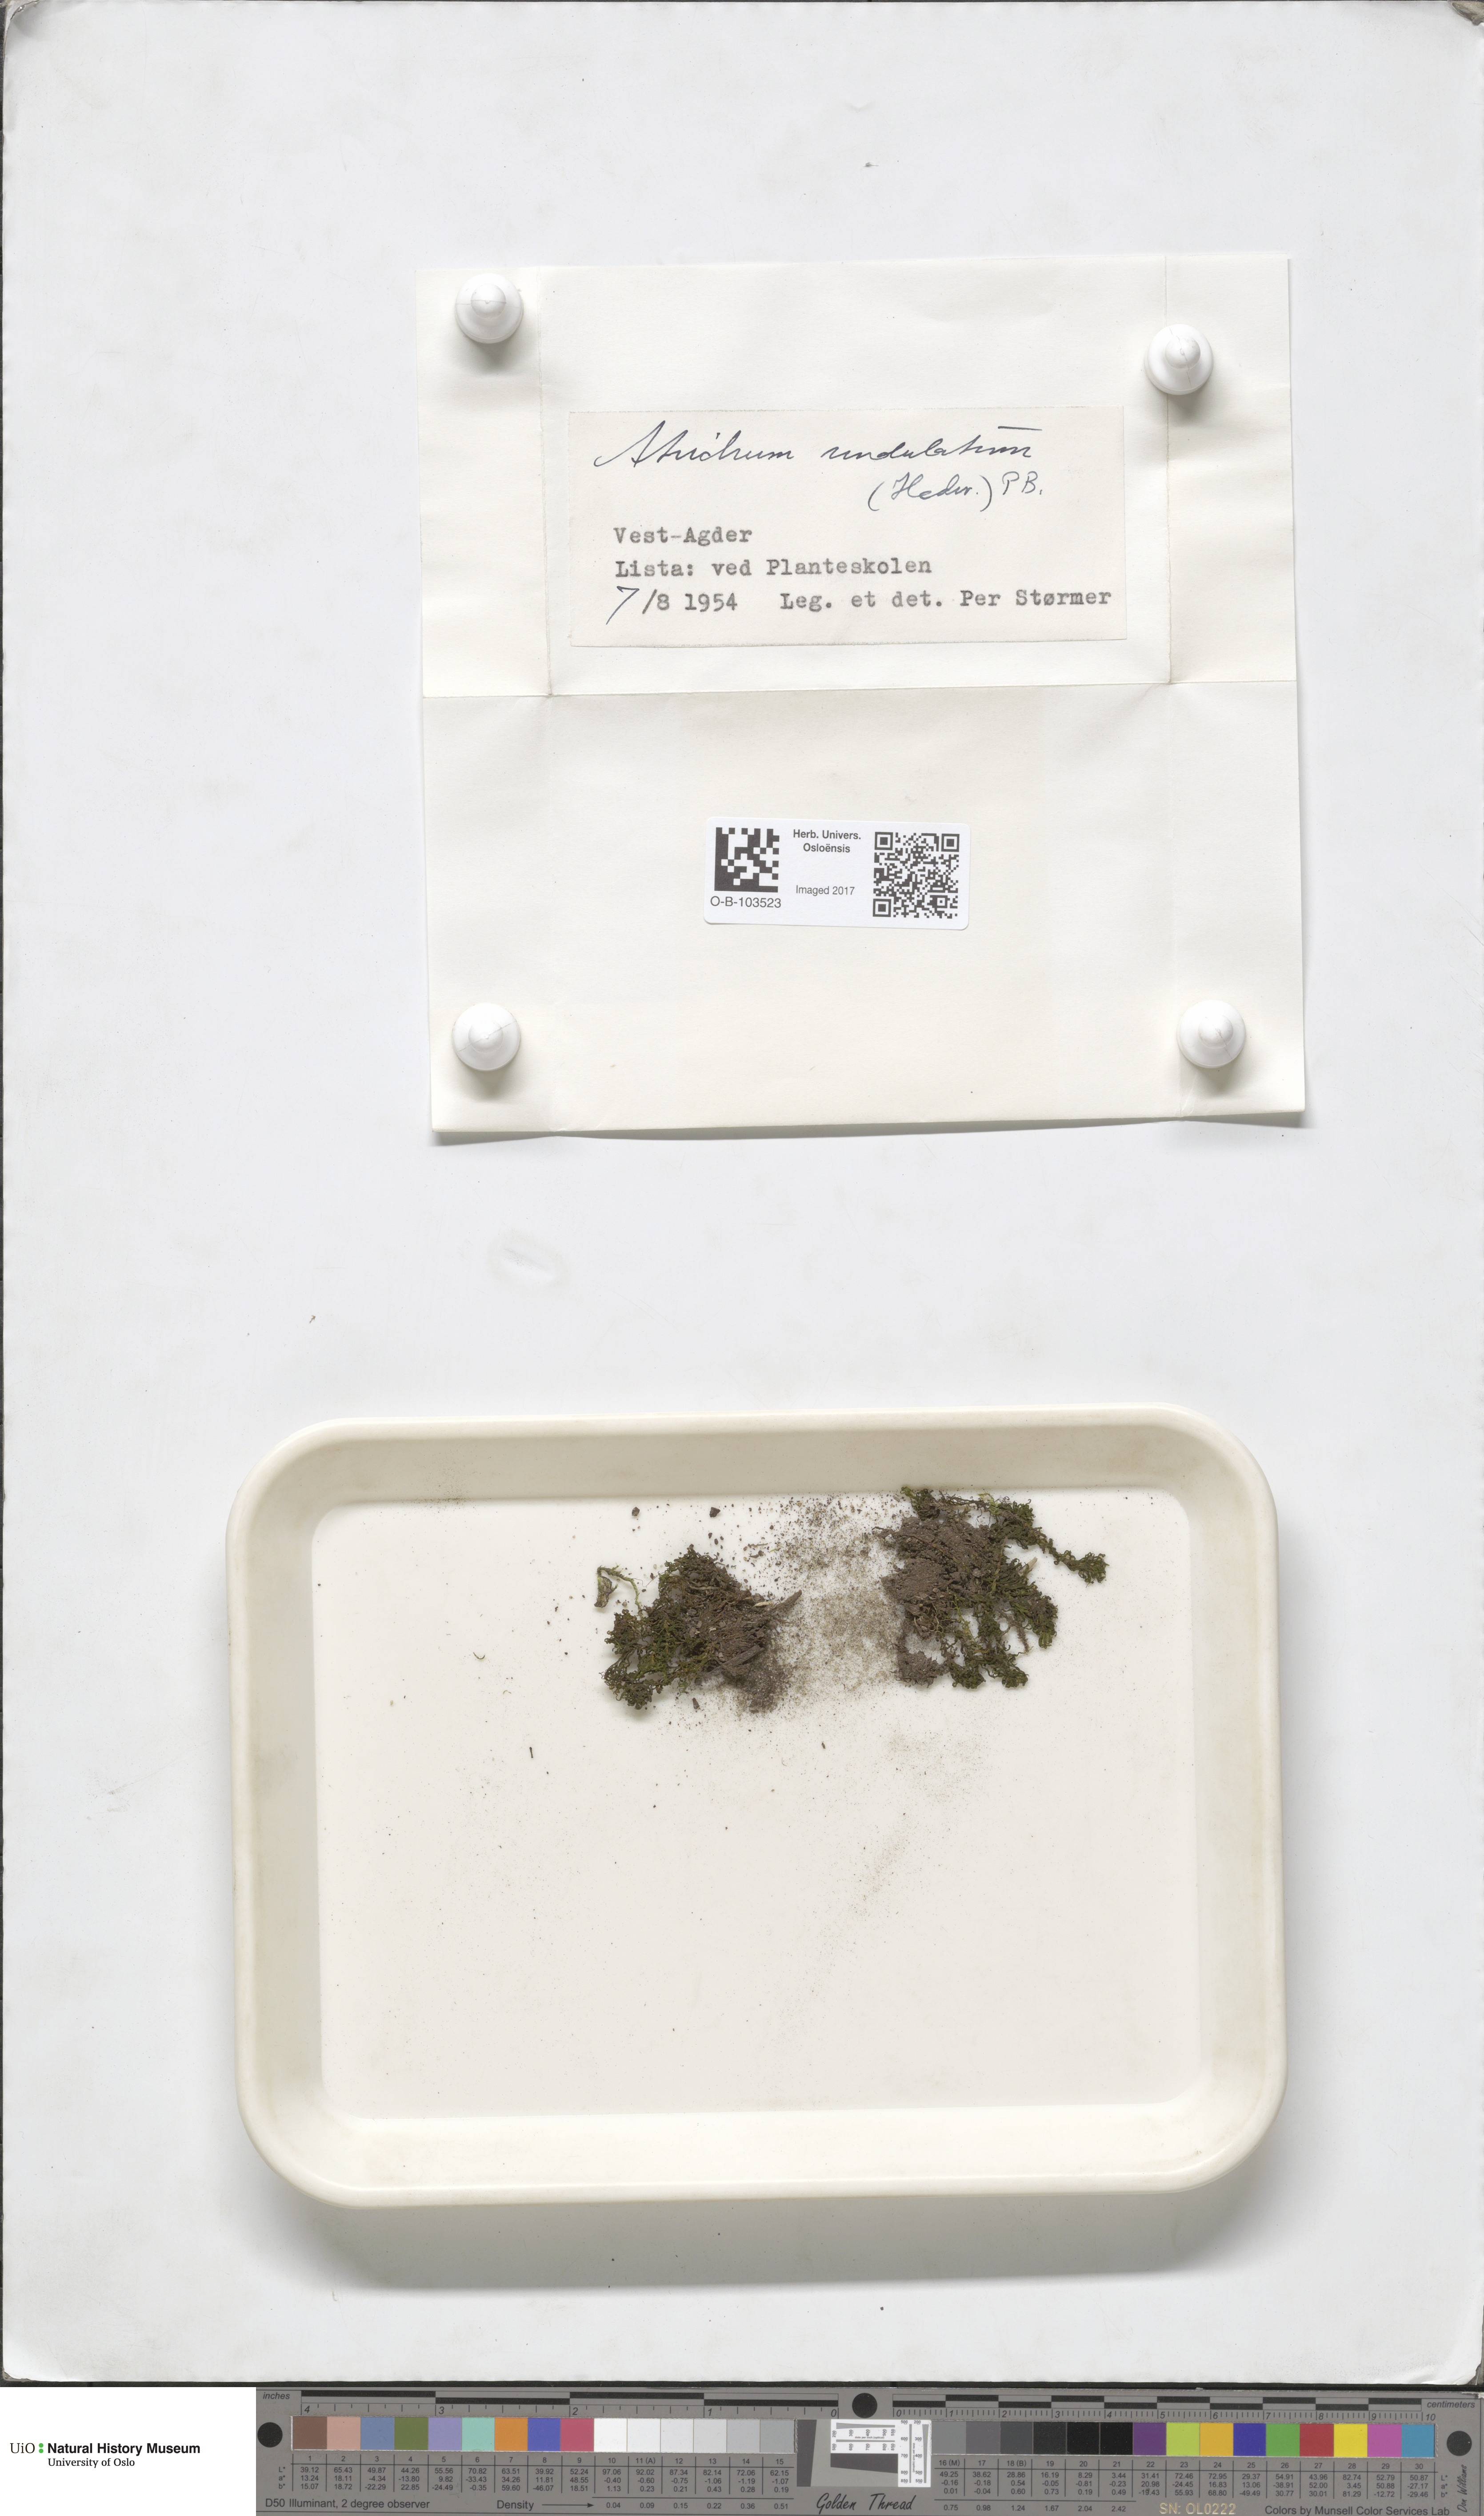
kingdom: Plantae
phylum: Bryophyta
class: Polytrichopsida
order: Polytrichales
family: Polytrichaceae
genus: Atrichum
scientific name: Atrichum undulatum
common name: Common smoothcap
